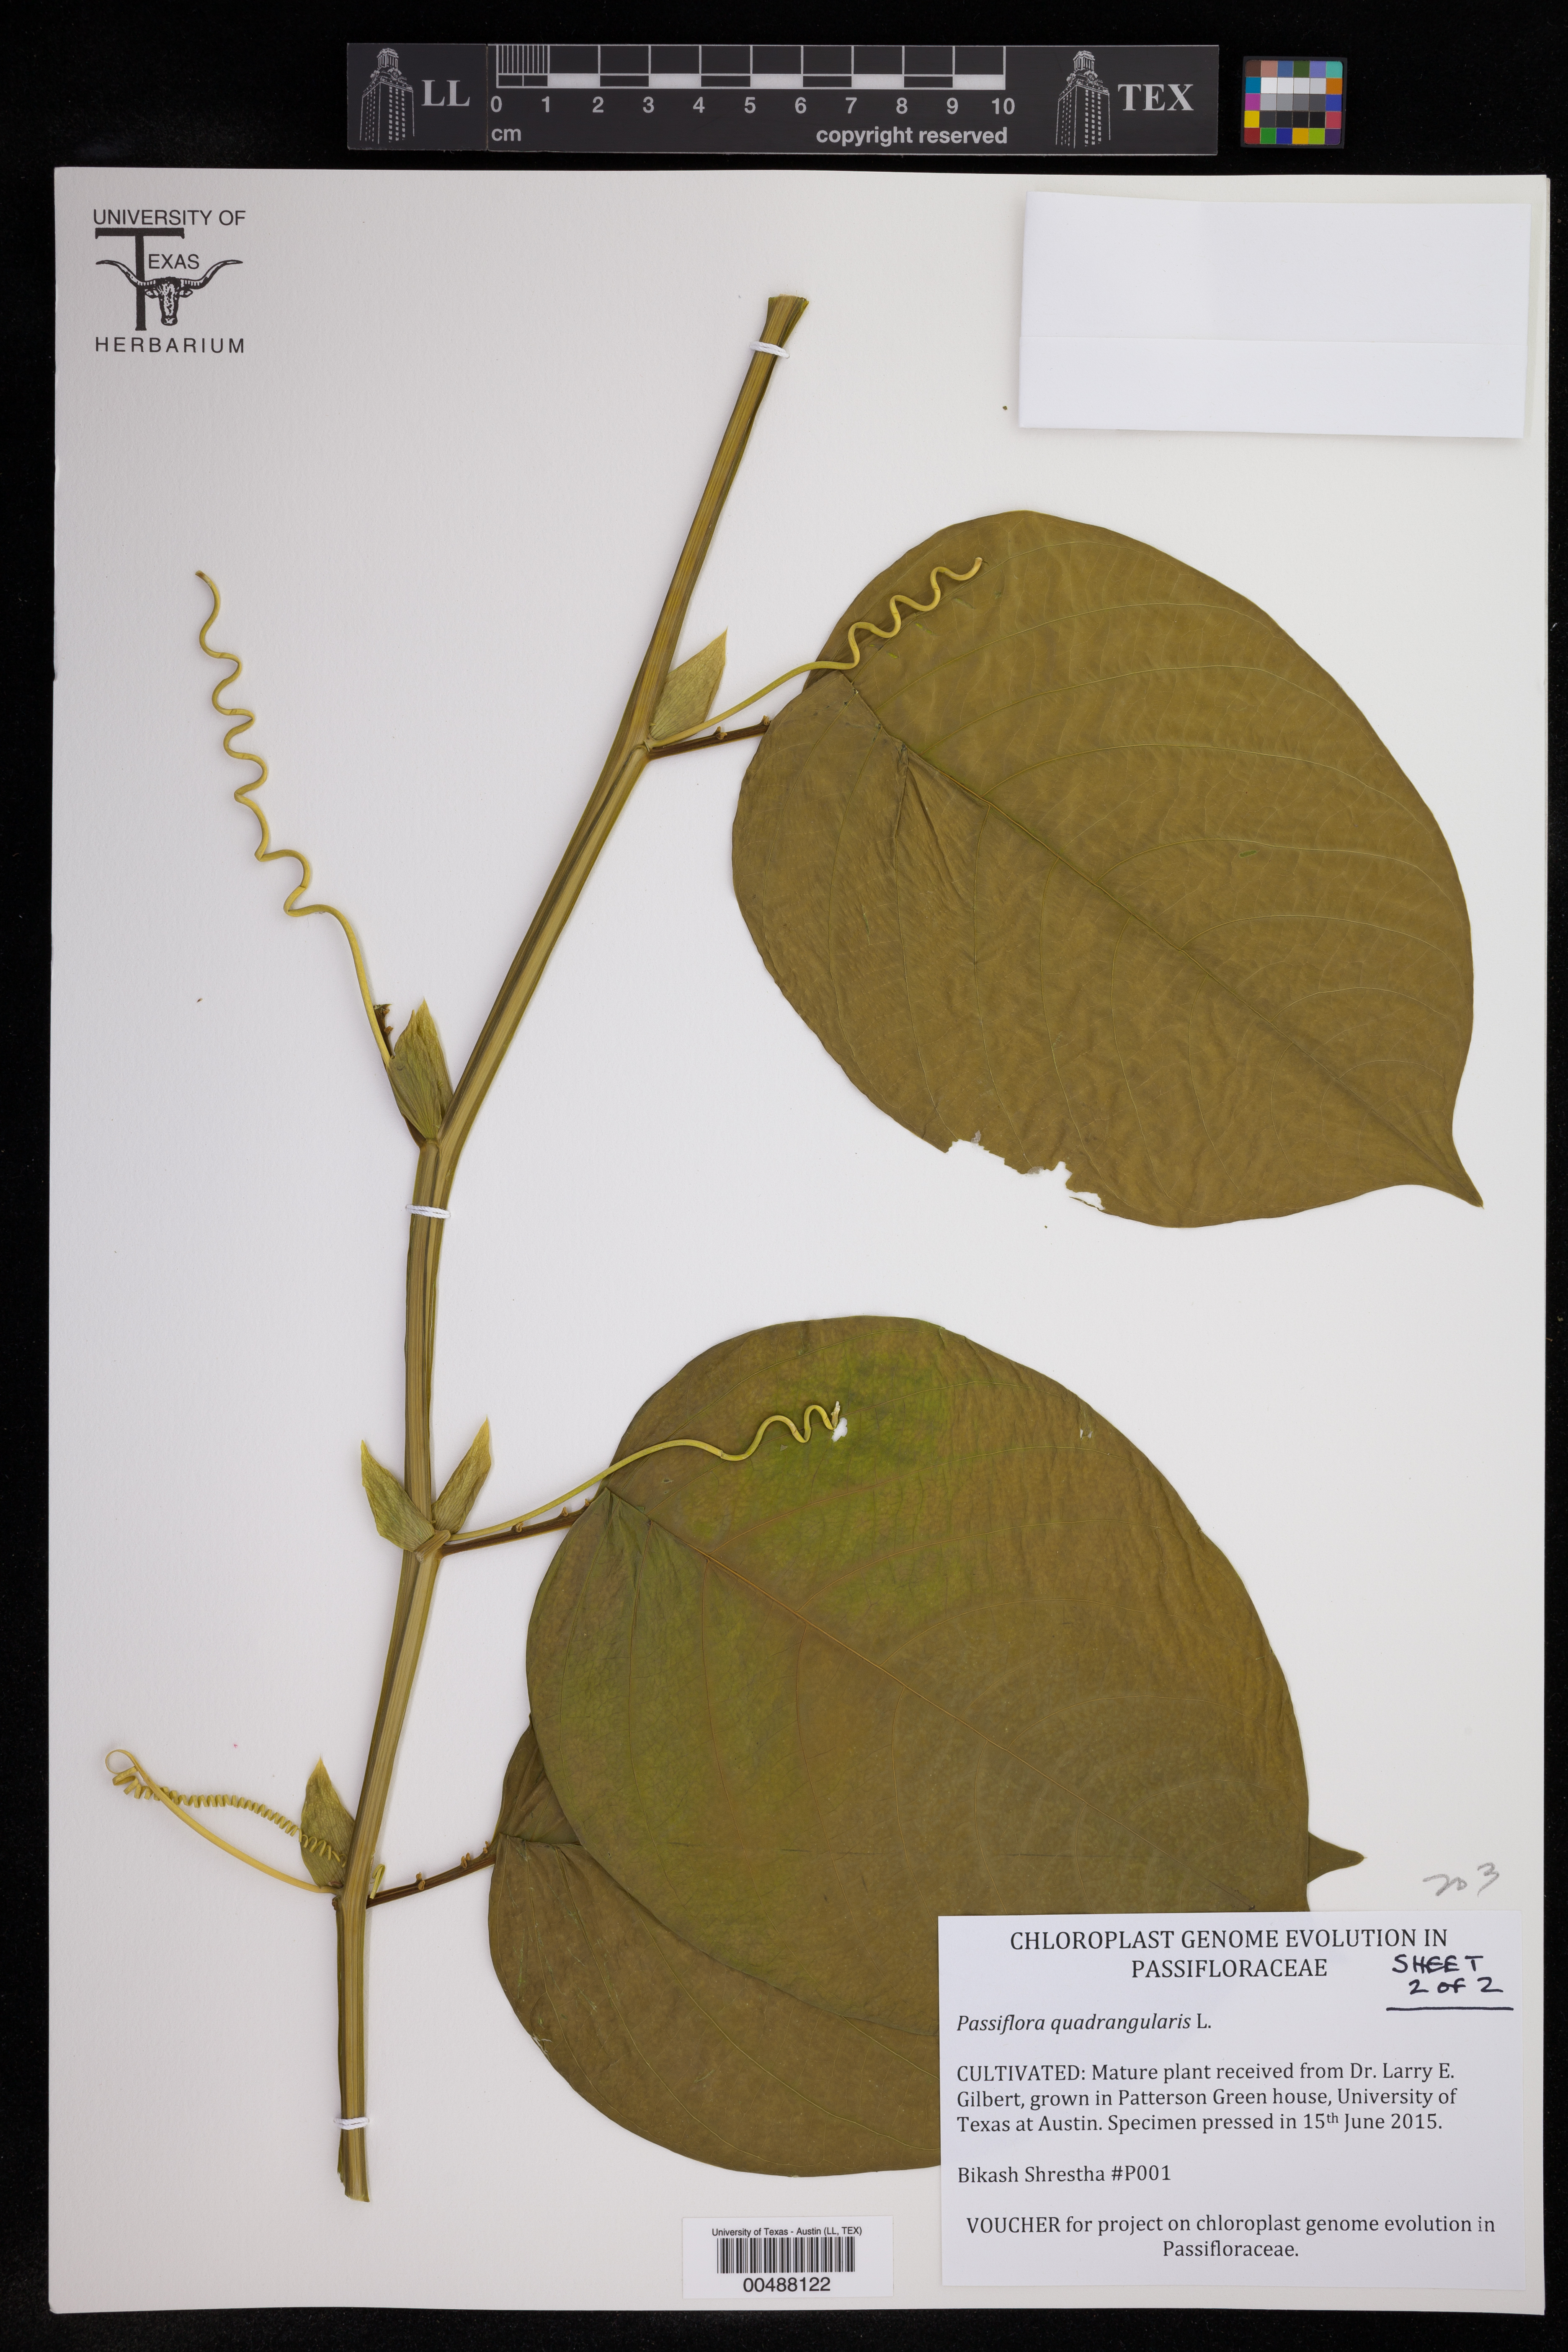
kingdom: Plantae
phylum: Tracheophyta
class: Magnoliopsida
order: Malpighiales
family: Passifloraceae
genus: Passiflora
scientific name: Passiflora quadrangularis
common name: Giant granadilla
